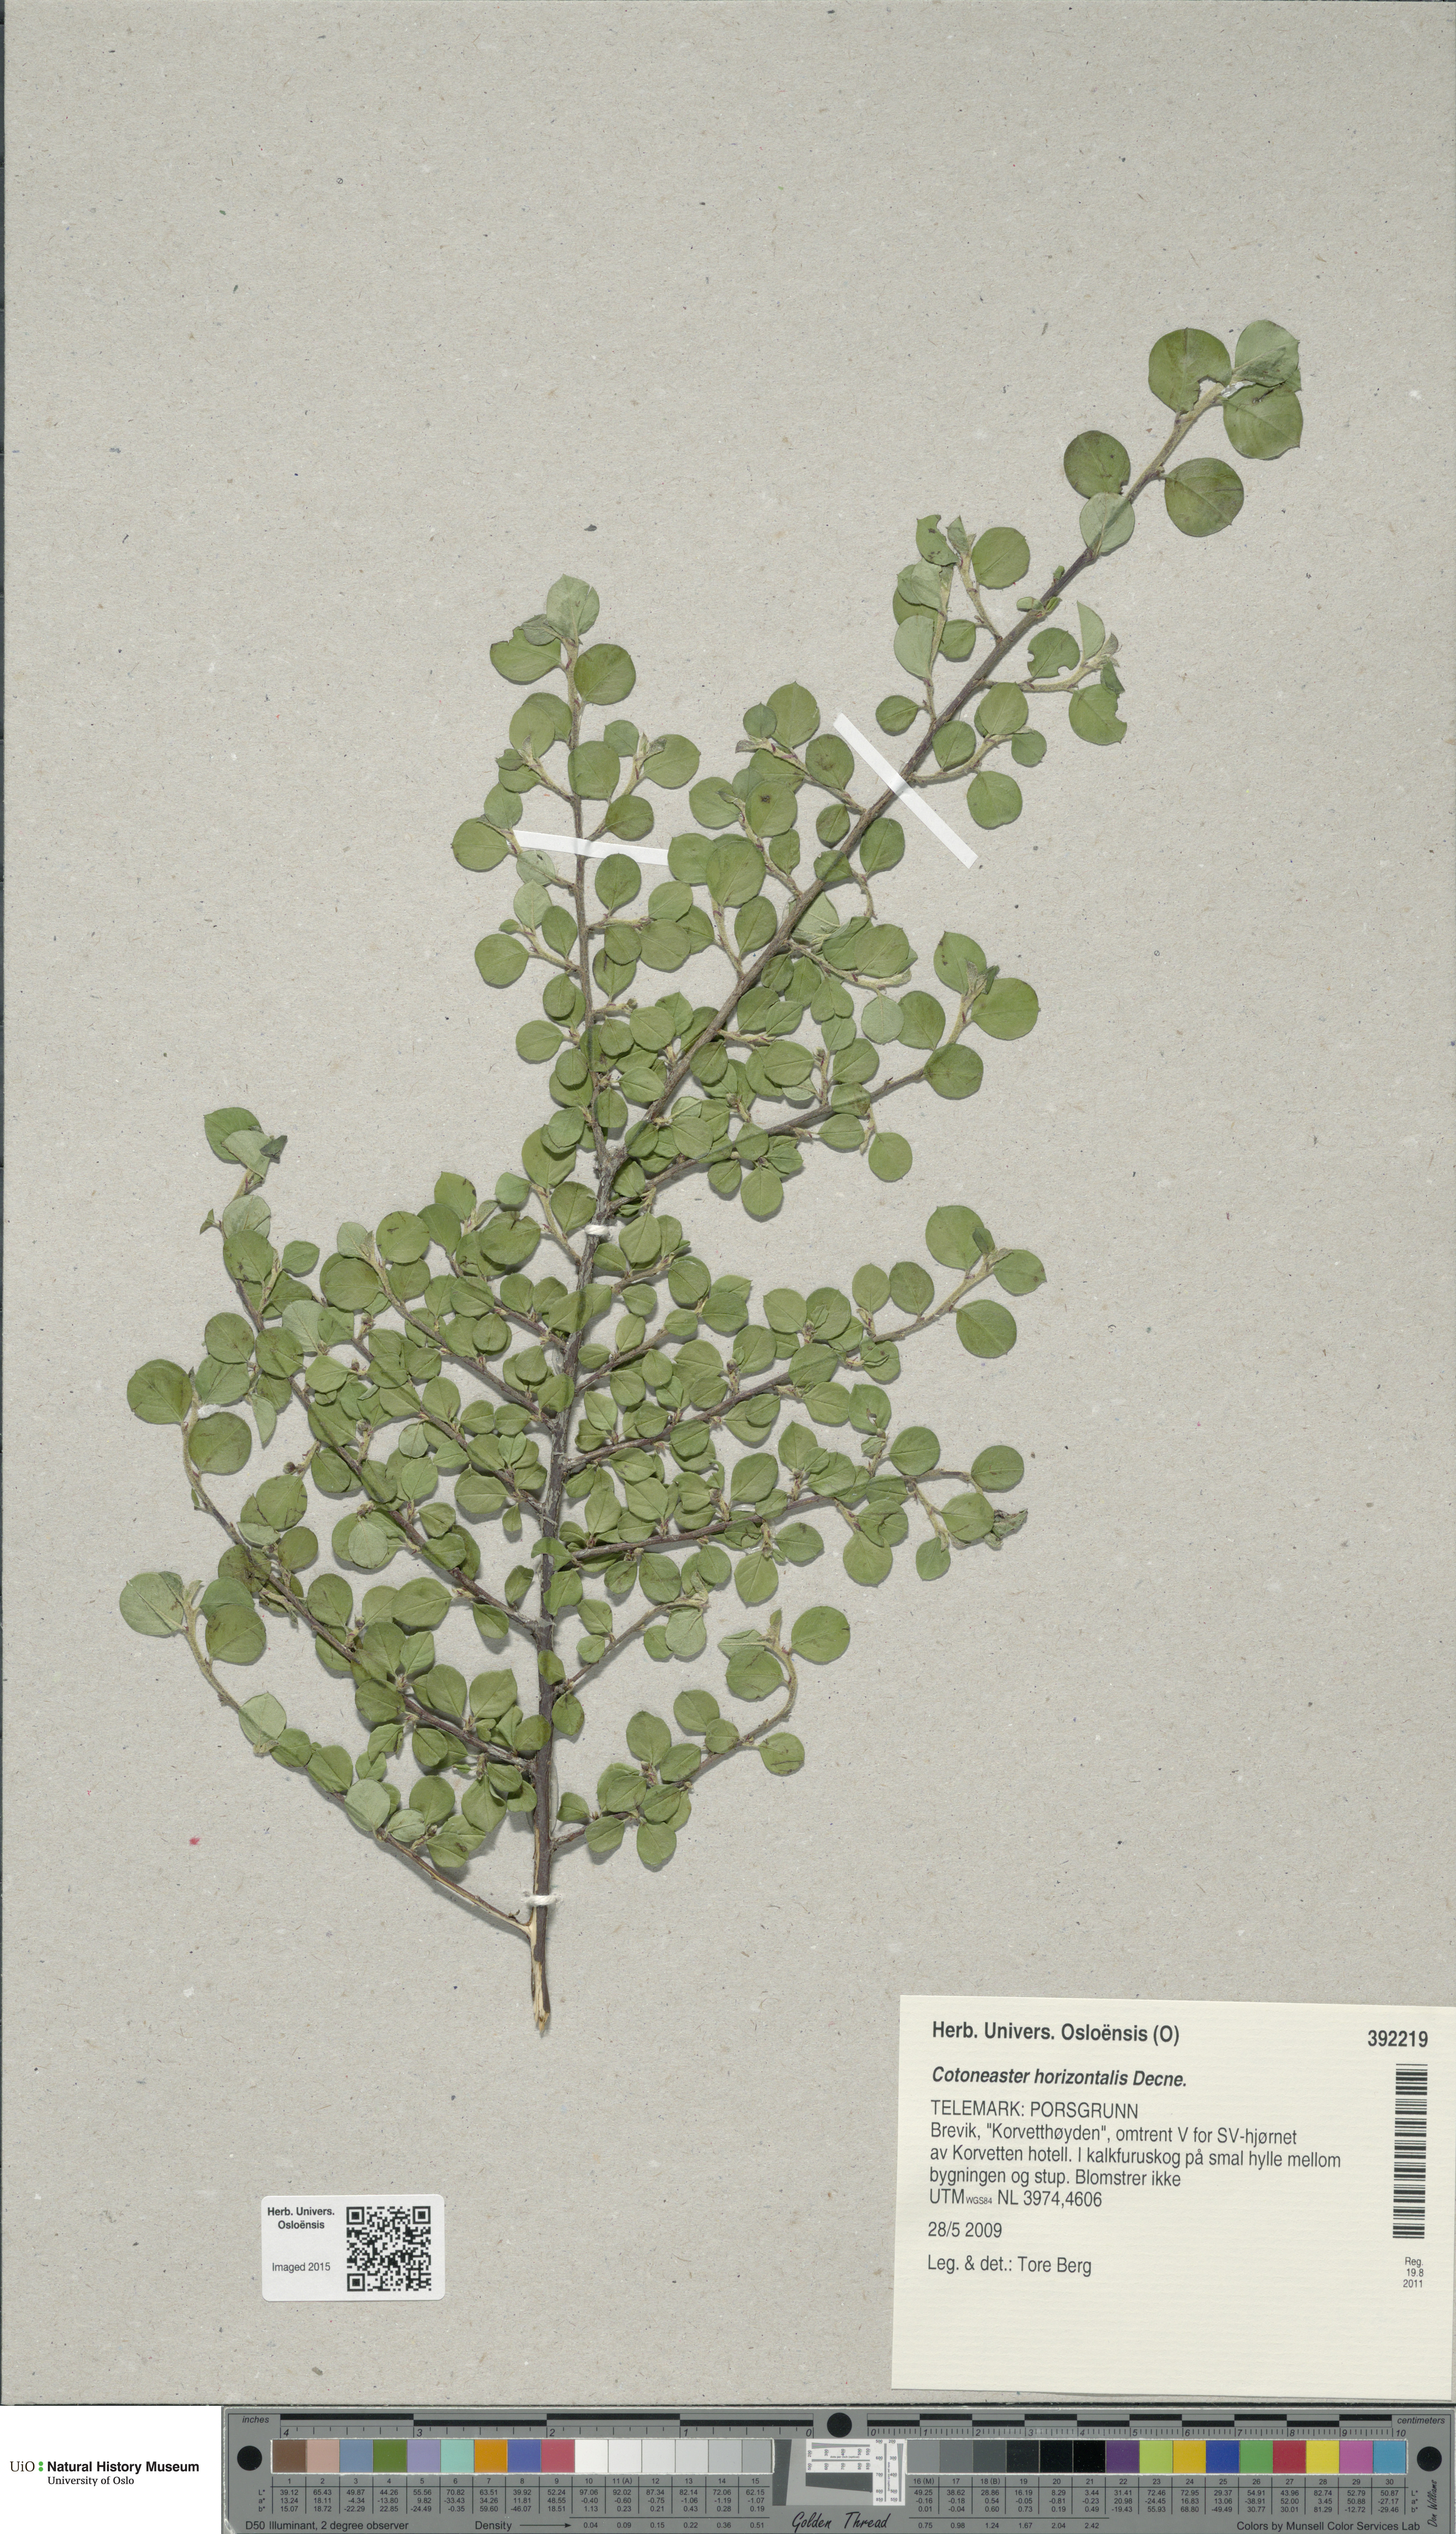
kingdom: Plantae
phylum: Tracheophyta
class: Magnoliopsida
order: Rosales
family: Rosaceae
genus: Cotoneaster
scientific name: Cotoneaster horizontalis
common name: Wall cotoneaster
